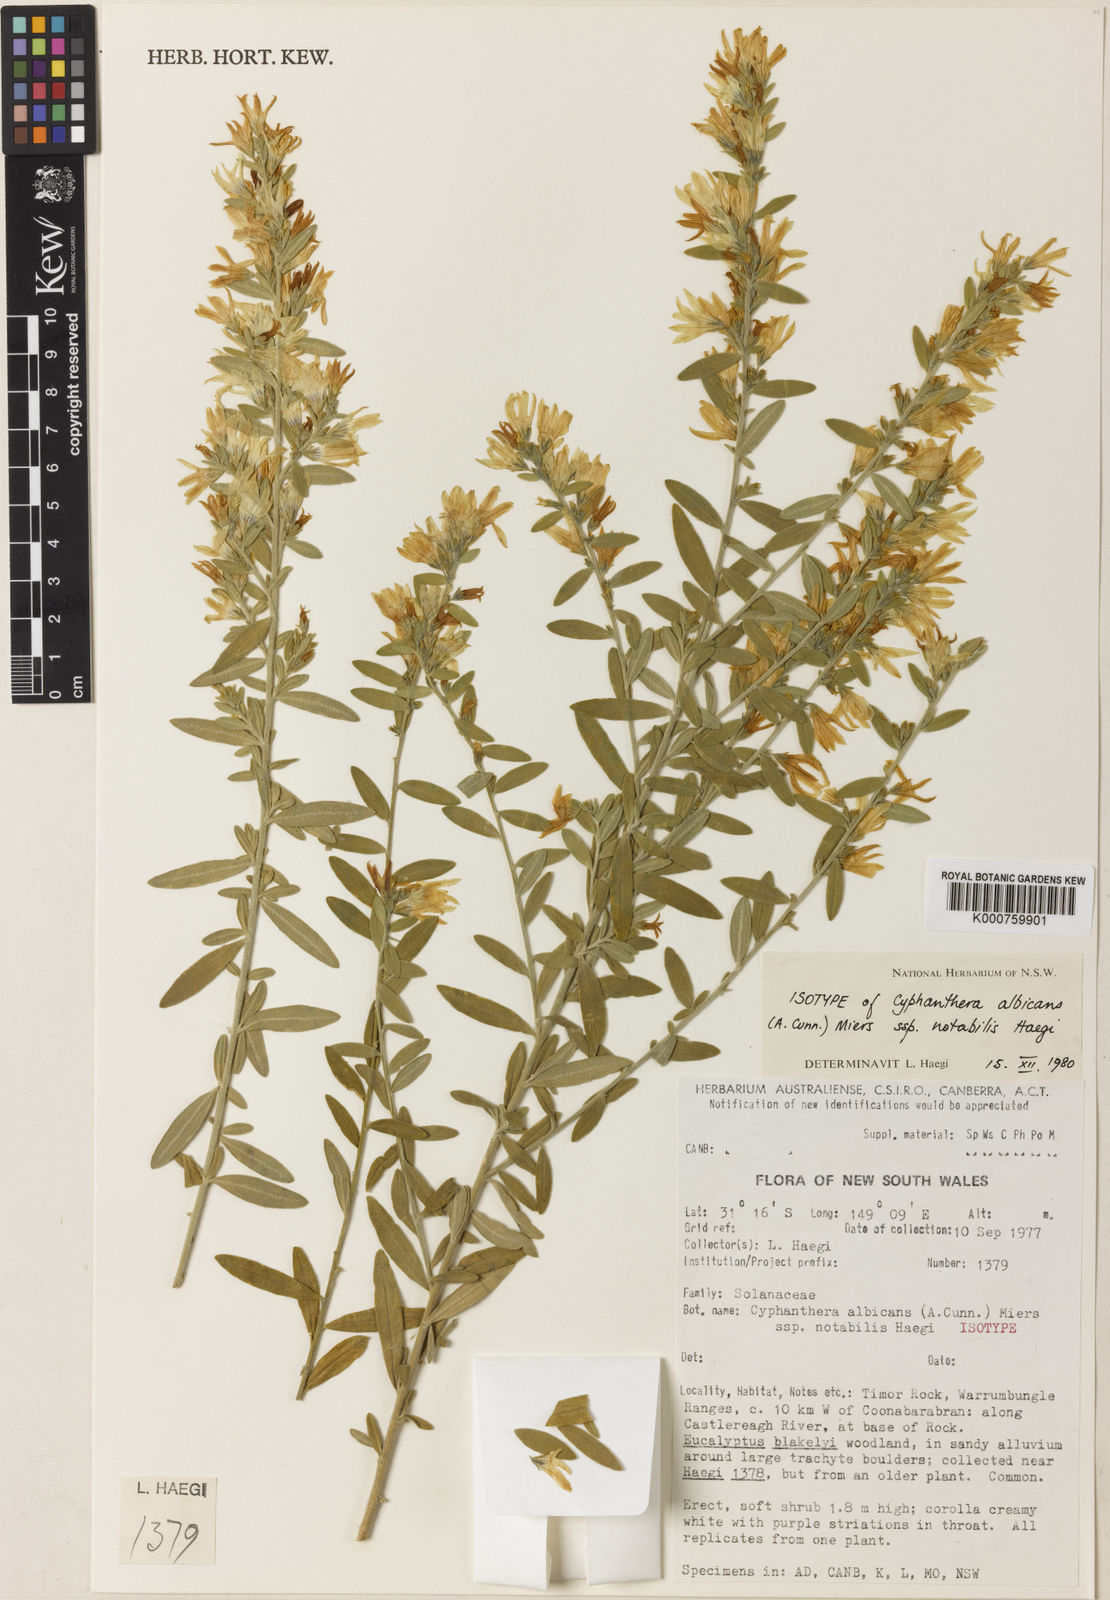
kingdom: Plantae
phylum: Tracheophyta
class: Magnoliopsida
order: Solanales
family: Solanaceae
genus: Cyphanthera
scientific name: Cyphanthera albicans
